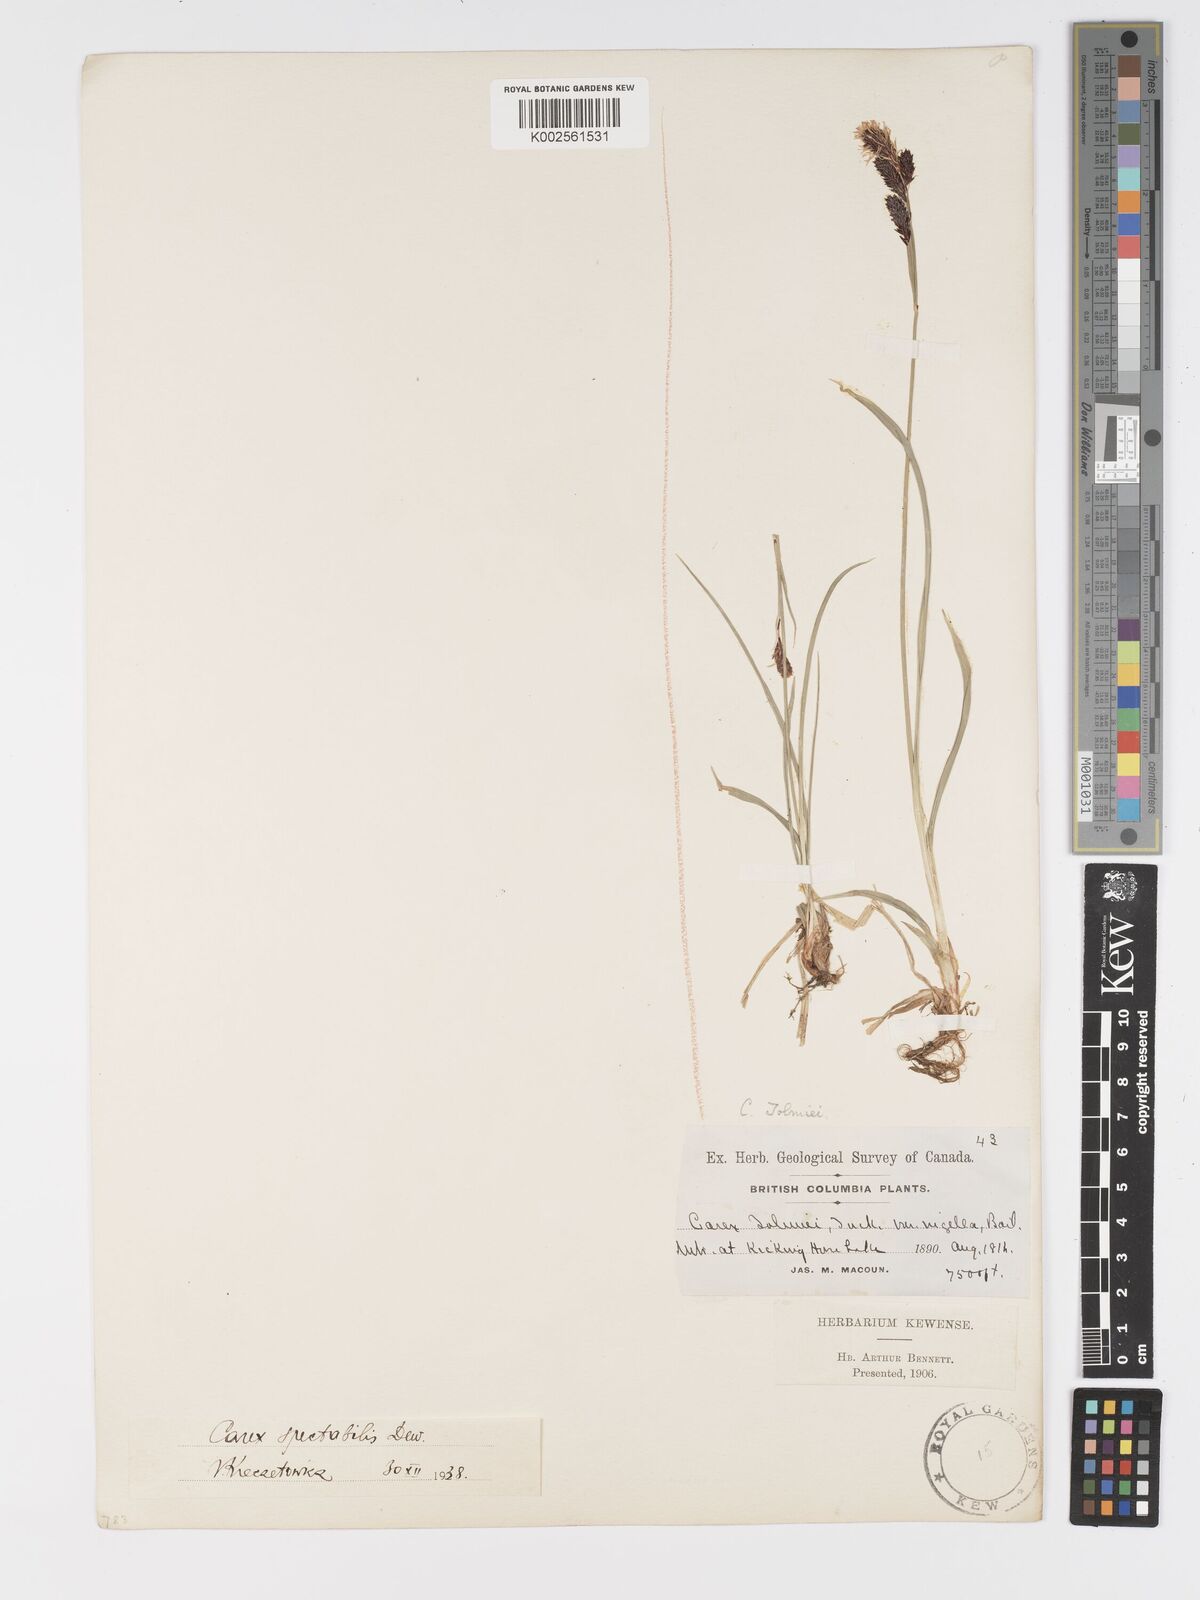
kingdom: Plantae
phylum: Tracheophyta
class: Liliopsida
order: Poales
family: Cyperaceae
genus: Carex
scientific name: Carex spectabilis
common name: Northwestern showy sedge
